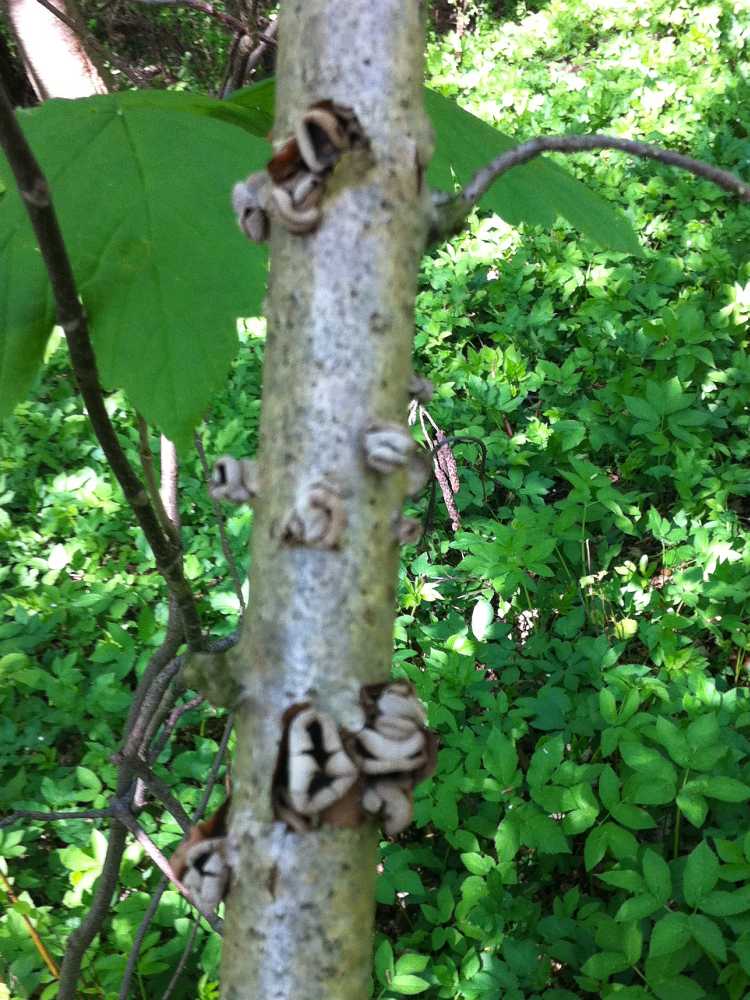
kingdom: Fungi
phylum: Ascomycota
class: Leotiomycetes
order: Helotiales
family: Cenangiaceae
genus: Encoelia
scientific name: Encoelia furfuracea
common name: hassel-læderskive
